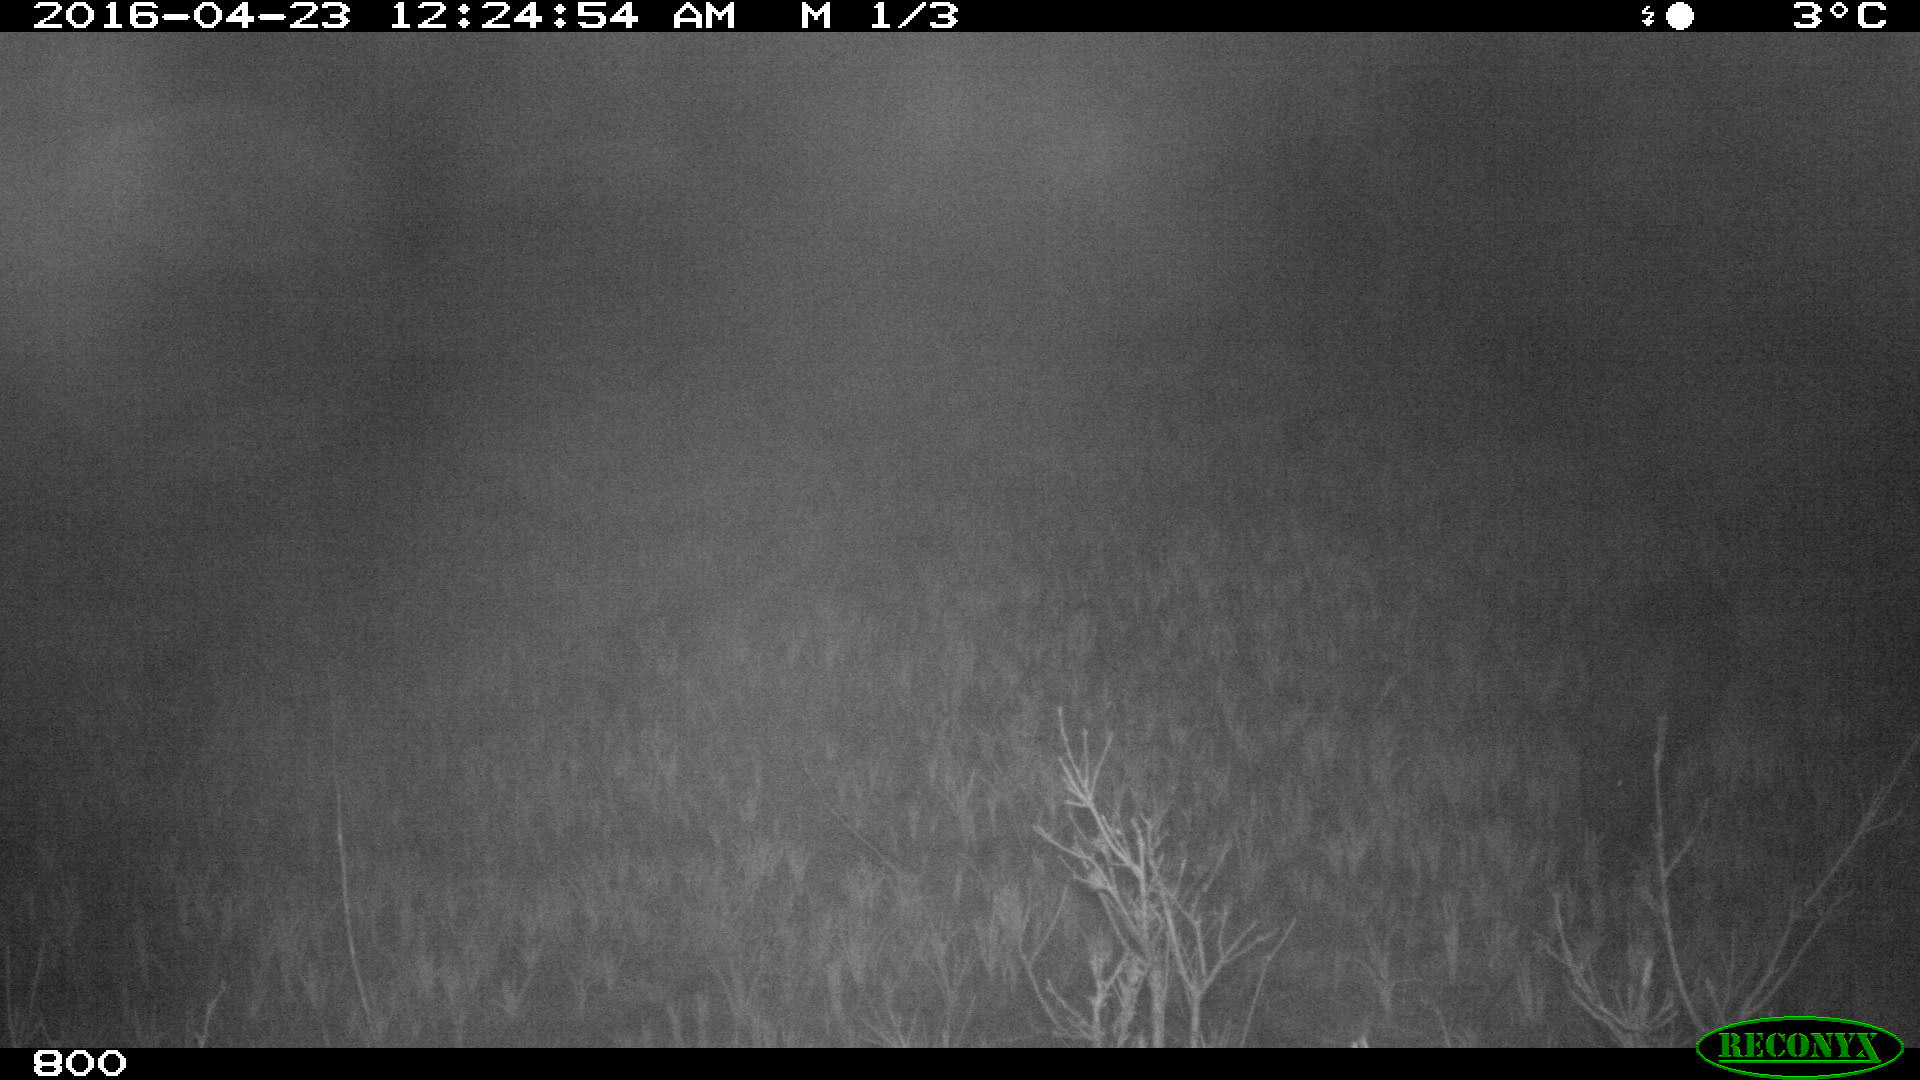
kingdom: Animalia
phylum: Chordata
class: Mammalia
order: Artiodactyla
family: Suidae
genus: Sus
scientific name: Sus scrofa
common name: Wild boar
